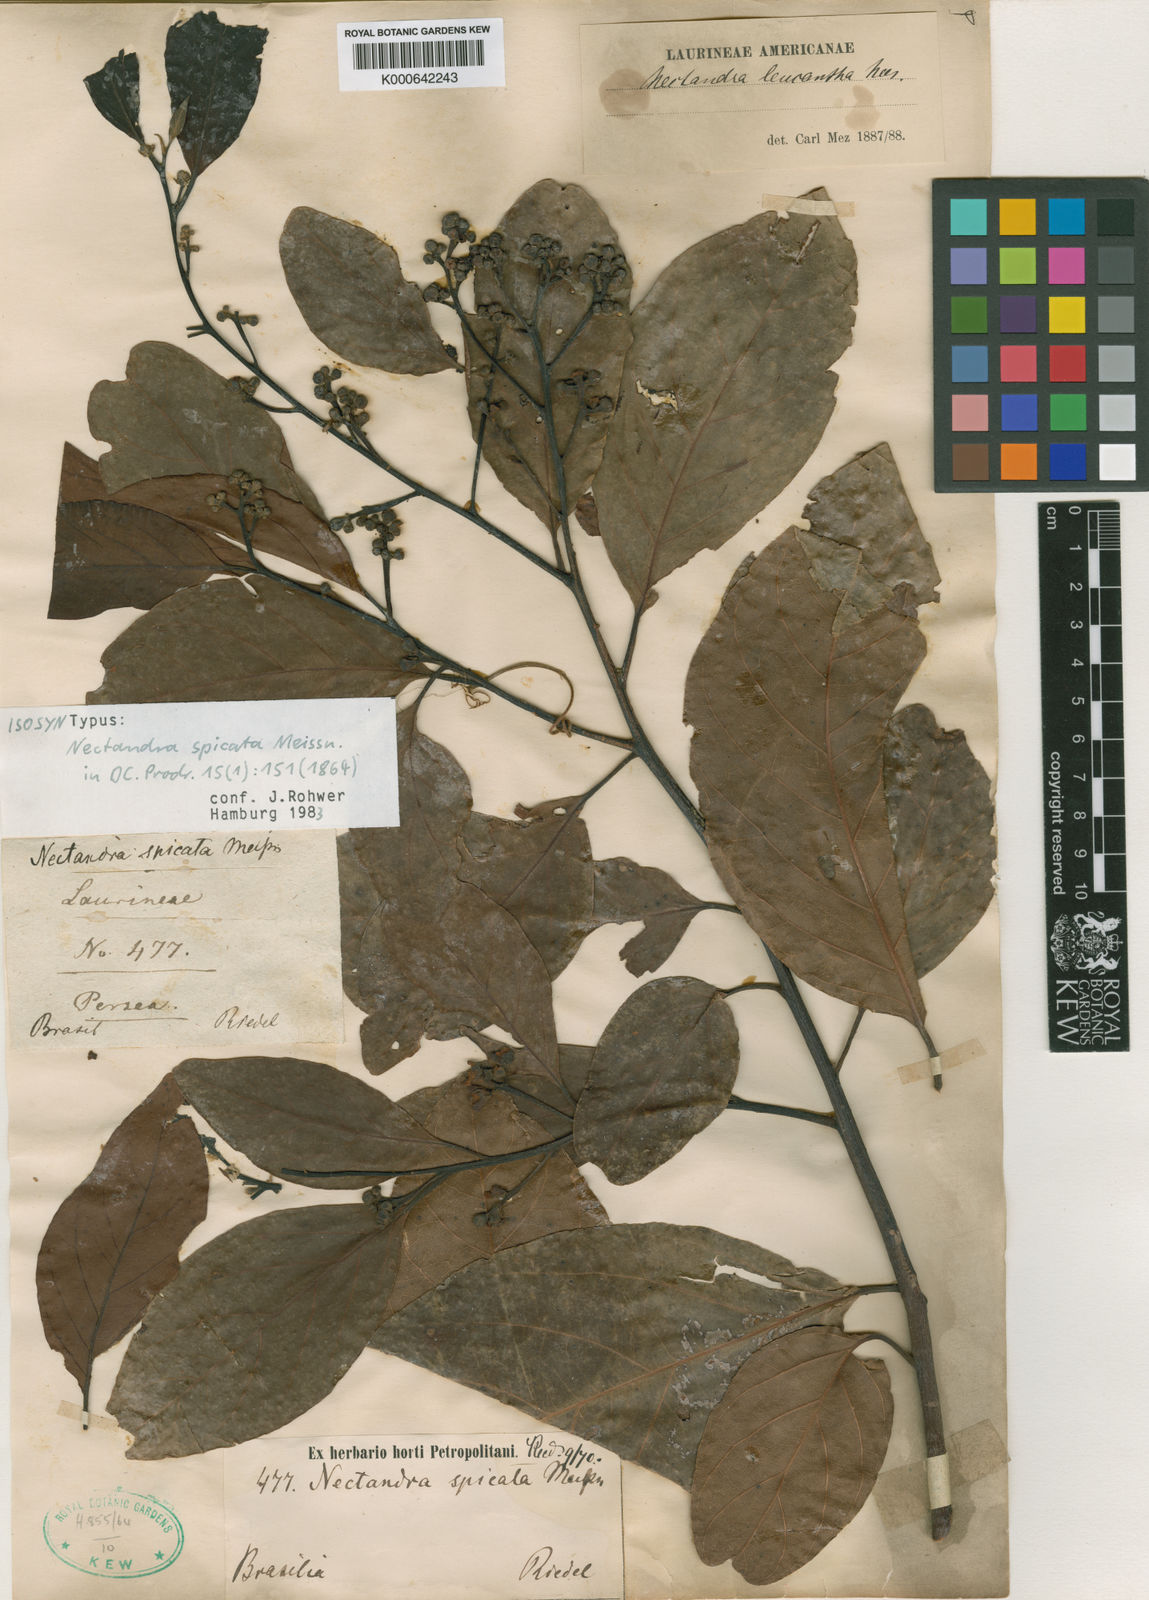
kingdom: Plantae
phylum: Tracheophyta
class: Magnoliopsida
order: Laurales
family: Lauraceae
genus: Nectandra
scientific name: Nectandra leucantha
